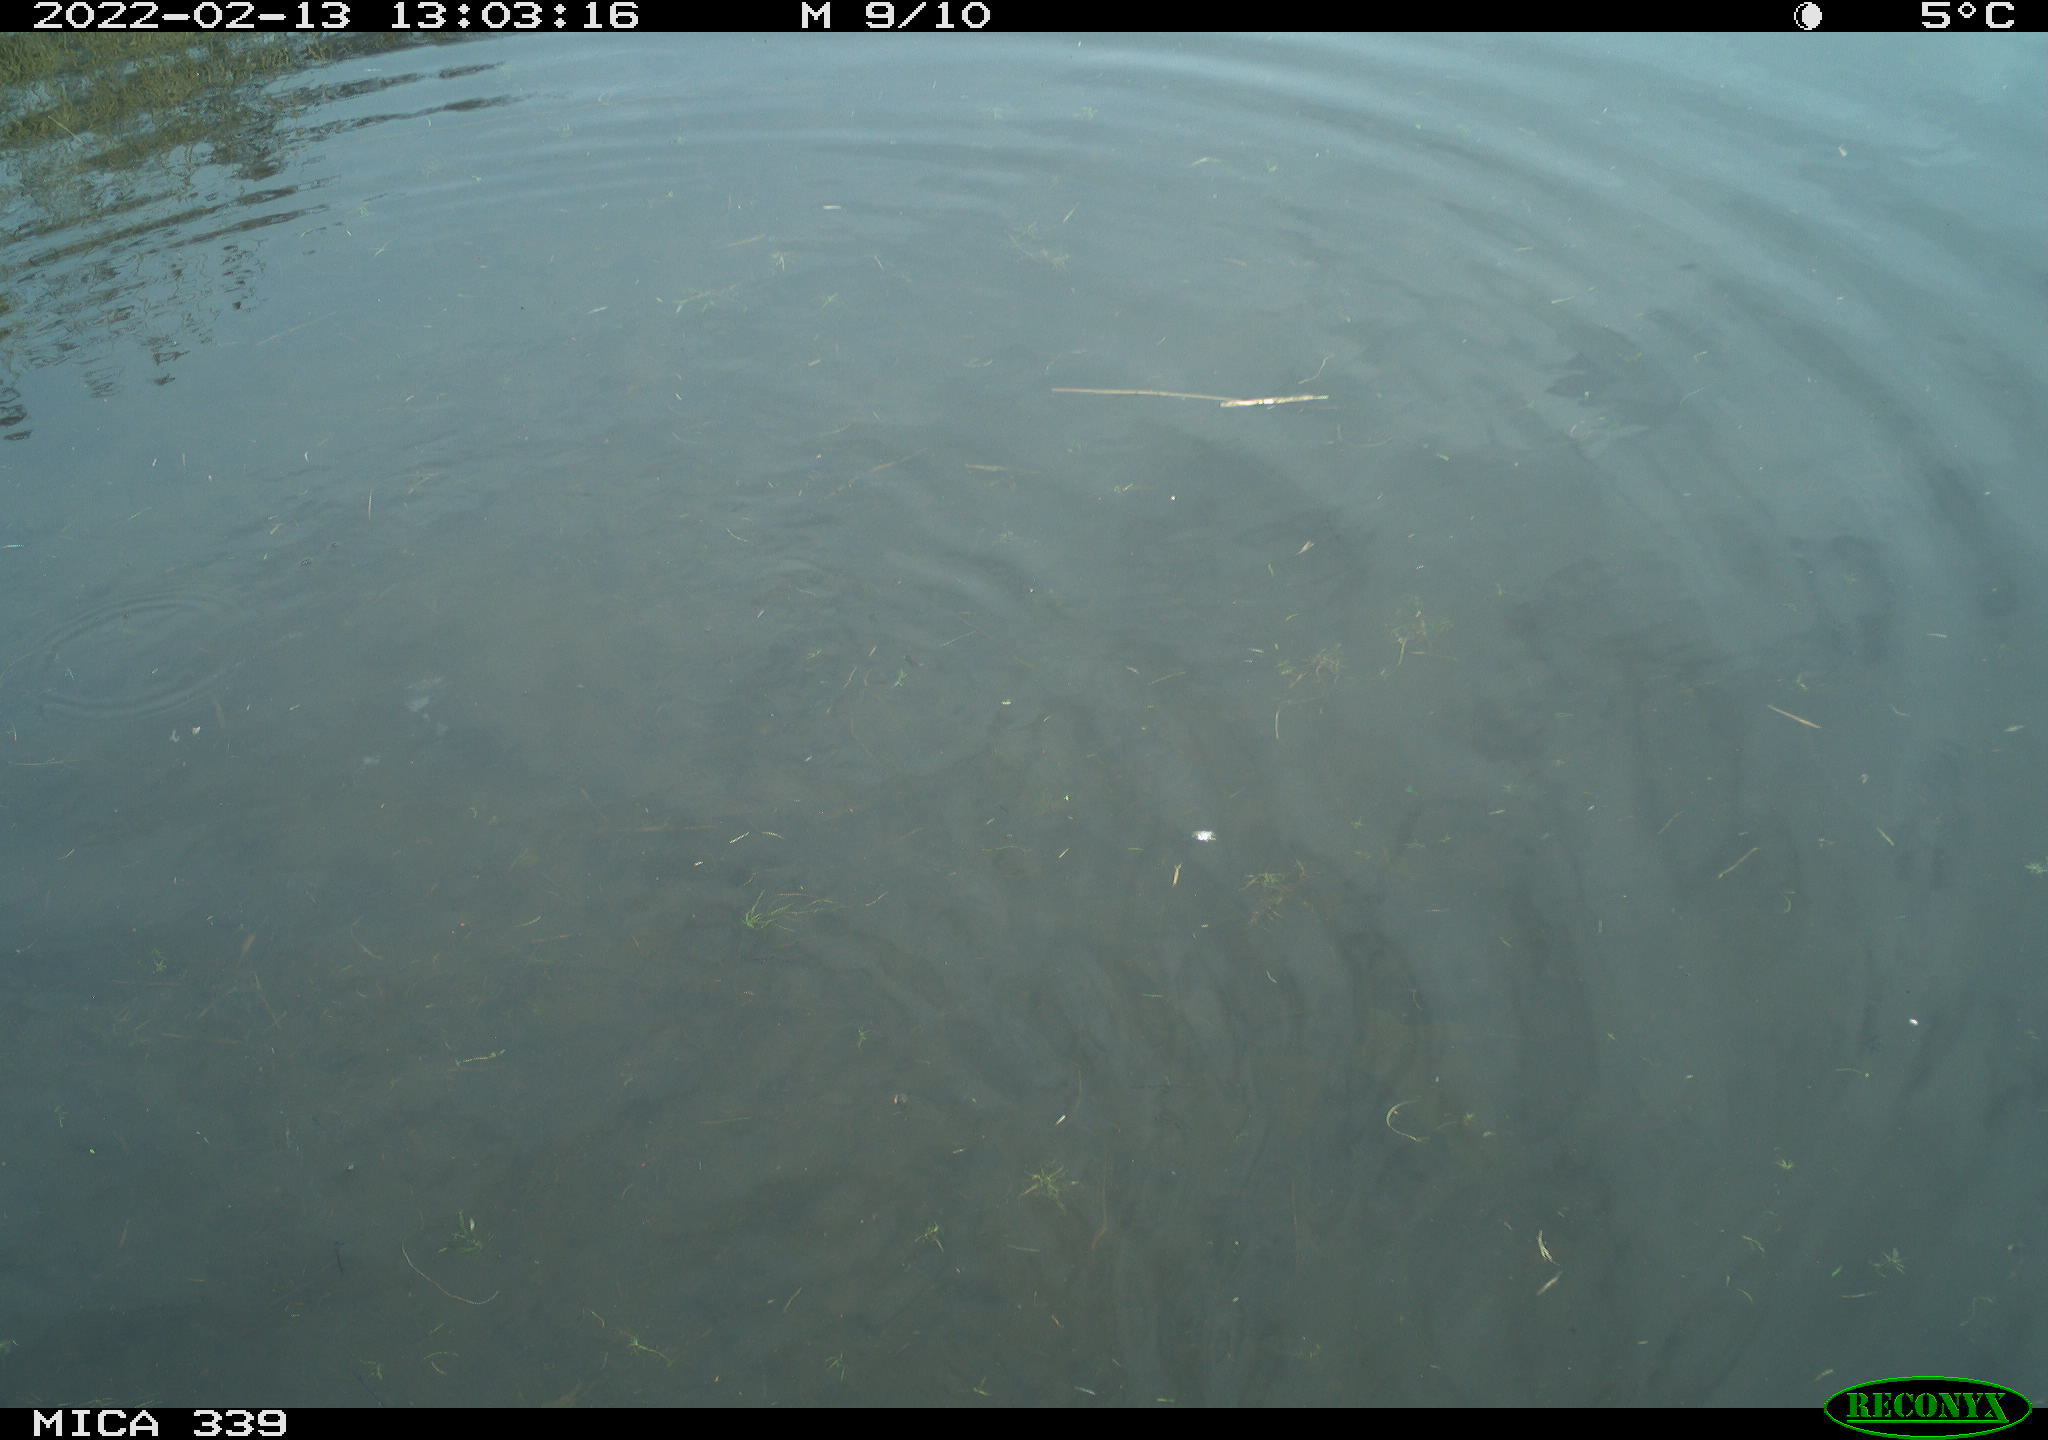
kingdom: Animalia
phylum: Chordata
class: Aves
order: Suliformes
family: Phalacrocoracidae
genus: Phalacrocorax
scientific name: Phalacrocorax carbo
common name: Great cormorant
